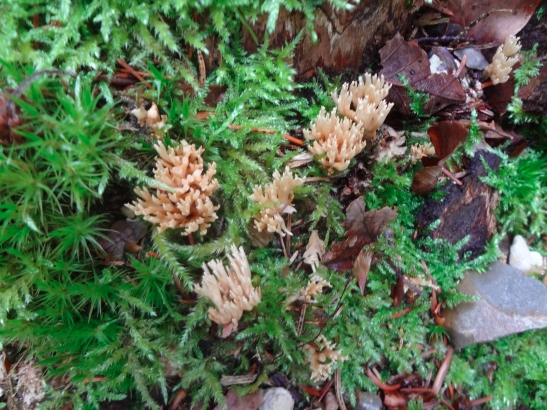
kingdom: Fungi
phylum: Basidiomycota
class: Agaricomycetes
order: Gomphales
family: Gomphaceae
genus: Phaeoclavulina
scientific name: Phaeoclavulina eumorpha
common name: gran-koralsvamp
